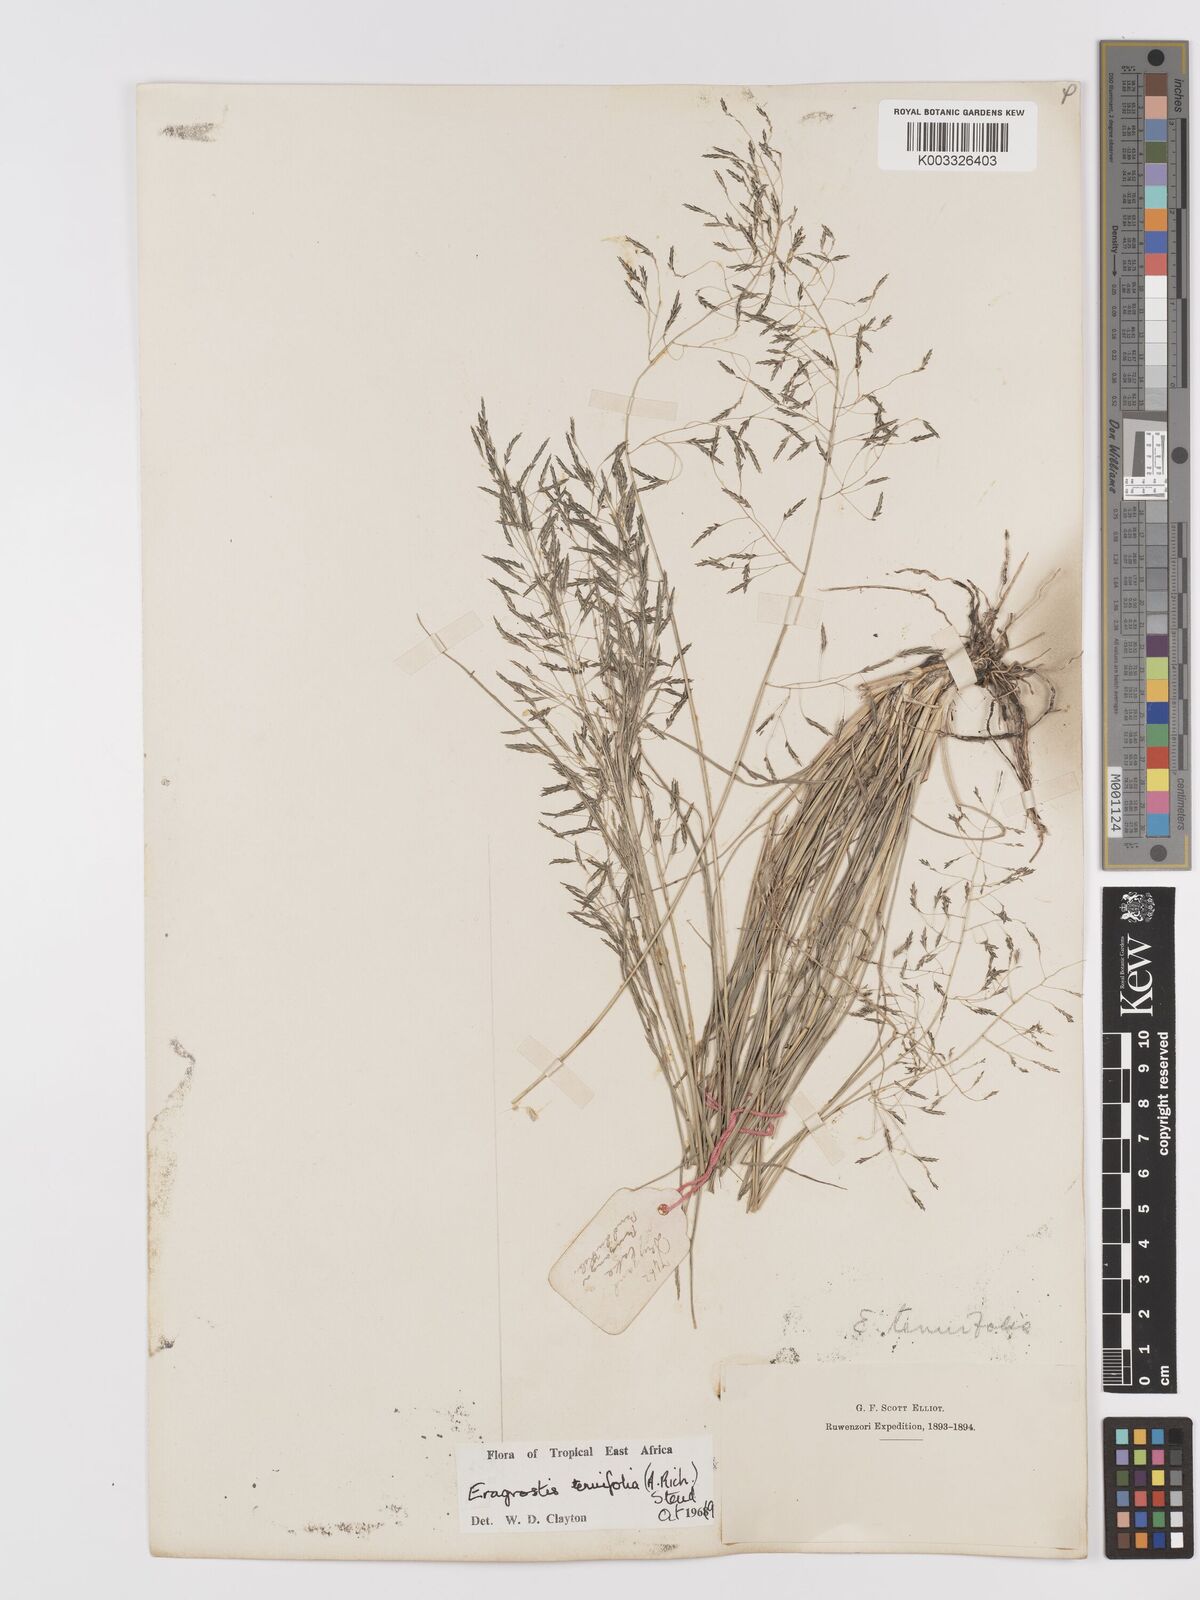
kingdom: Plantae
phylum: Tracheophyta
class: Liliopsida
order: Poales
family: Poaceae
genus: Eragrostis
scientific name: Eragrostis tenuifolia
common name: Elastic grass
